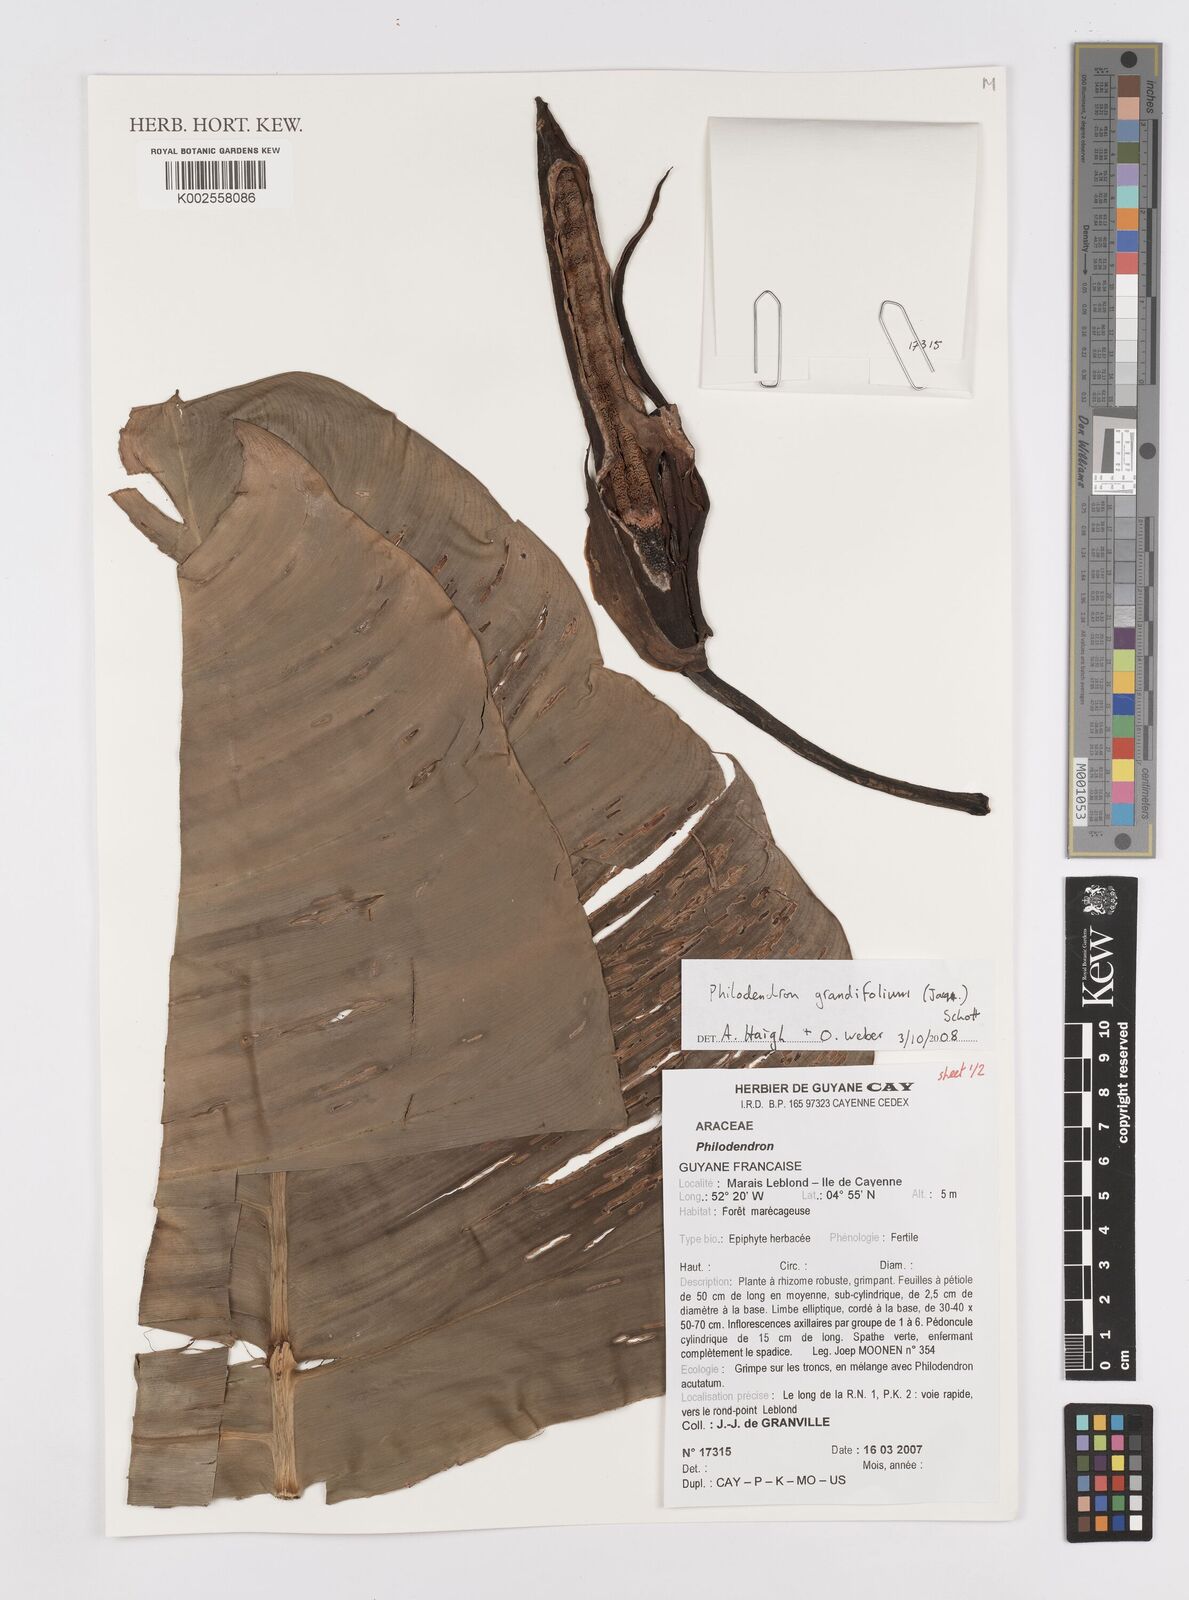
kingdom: Plantae
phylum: Tracheophyta
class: Liliopsida
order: Alismatales
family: Araceae
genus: Philodendron
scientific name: Philodendron grandifolium
